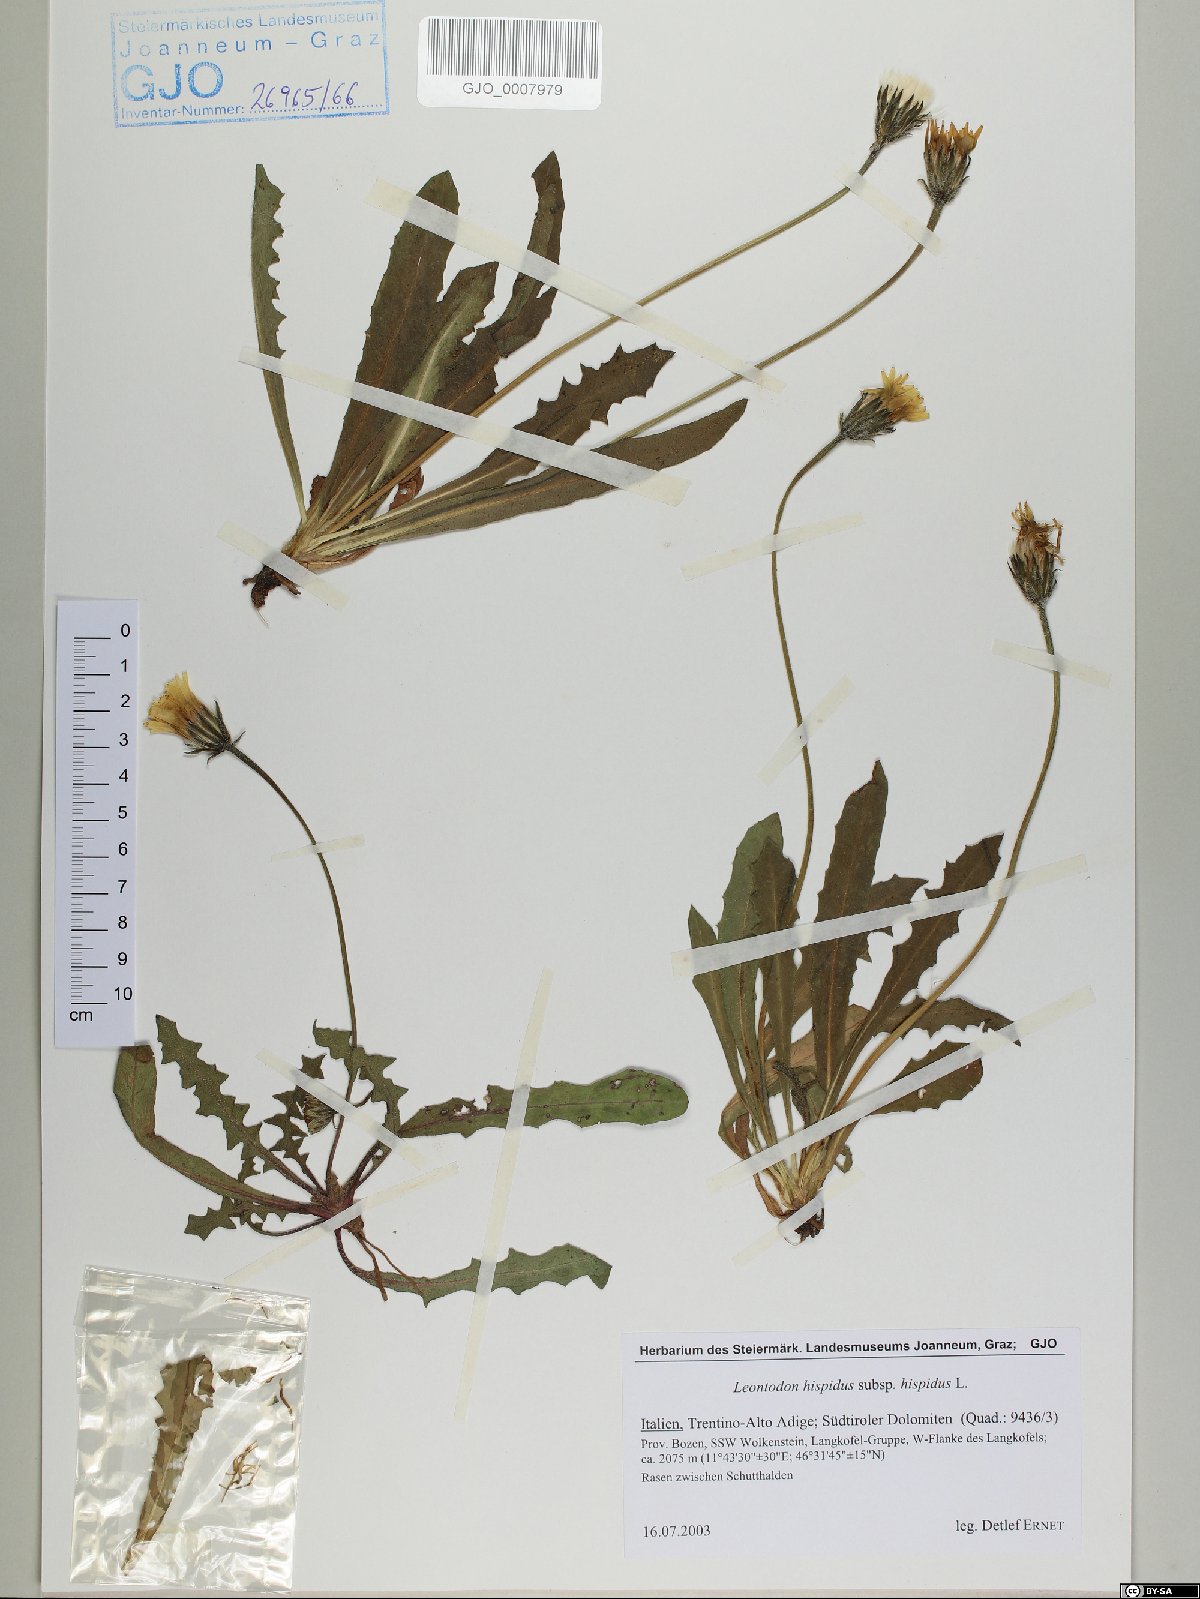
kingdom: Plantae
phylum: Tracheophyta
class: Magnoliopsida
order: Asterales
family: Asteraceae
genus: Leontodon
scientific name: Leontodon hispidus
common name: Rough hawkbit
